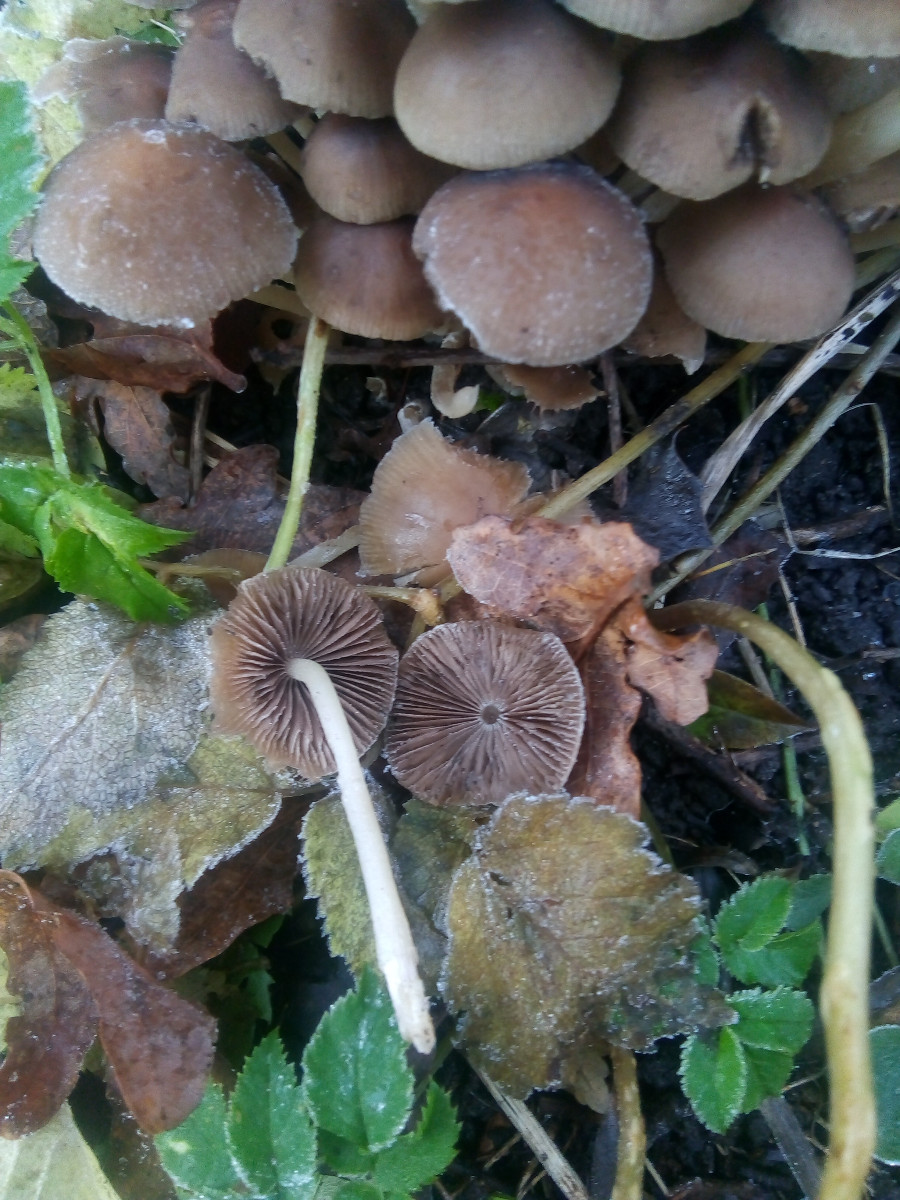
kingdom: Fungi
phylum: Basidiomycota
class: Agaricomycetes
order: Agaricales
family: Psathyrellaceae
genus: Britzelmayria
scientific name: Britzelmayria multipedata
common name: knippe-mørkhat
